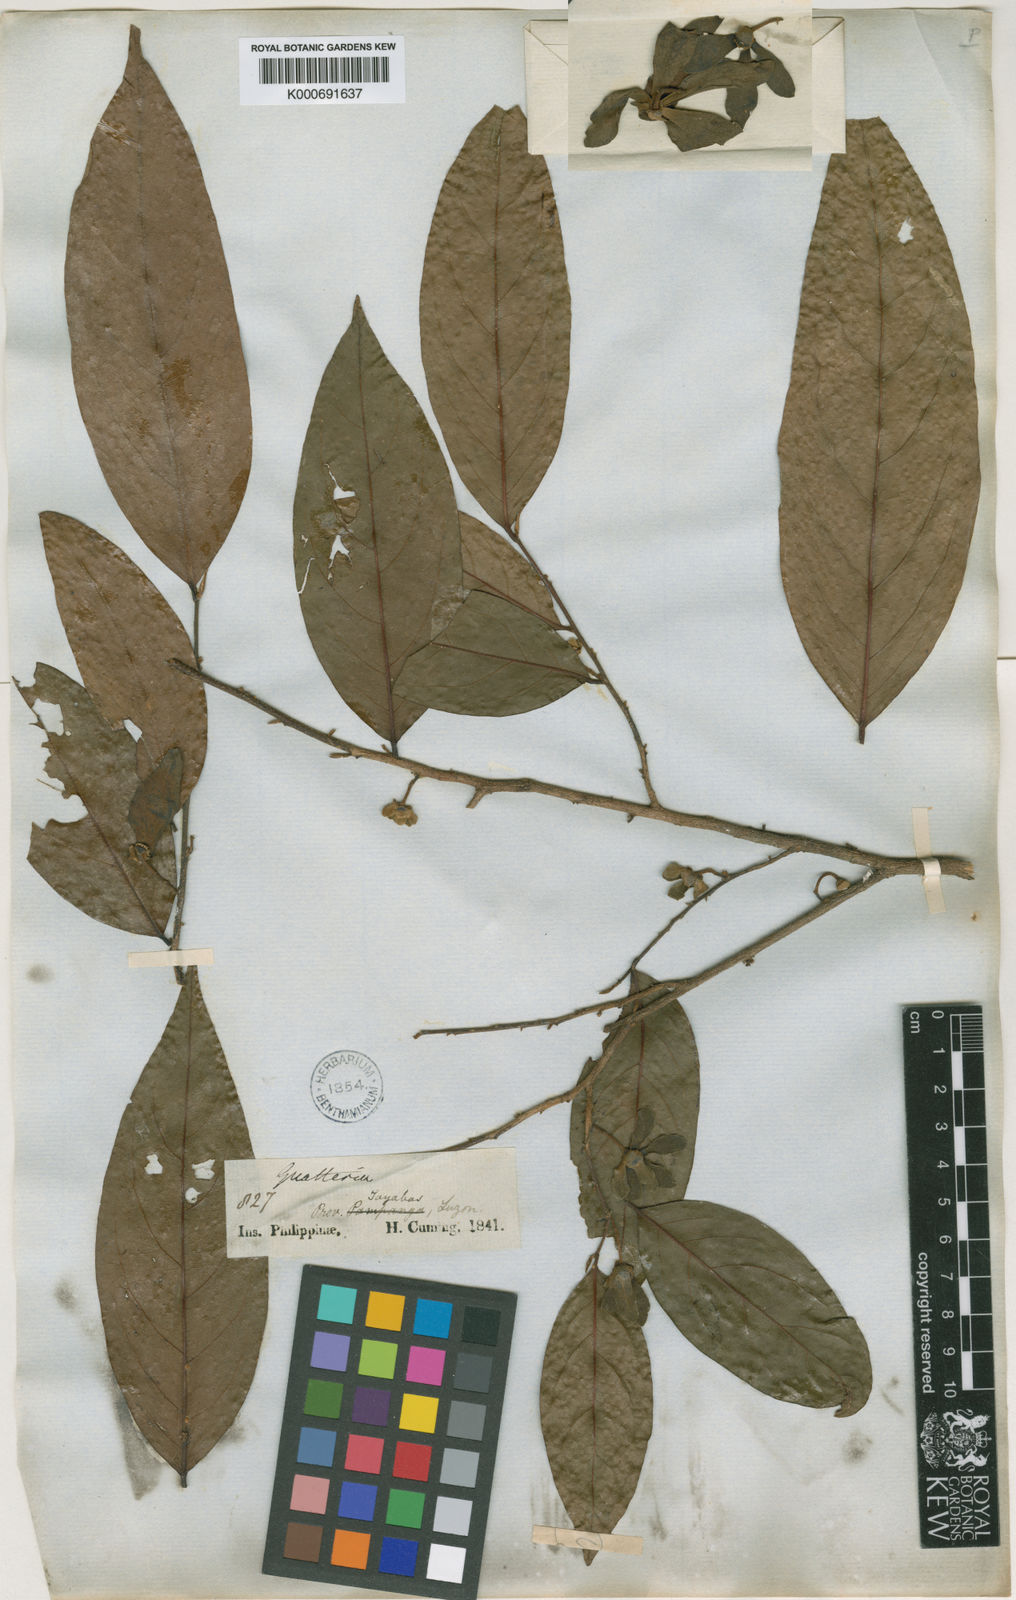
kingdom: Plantae
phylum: Tracheophyta
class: Magnoliopsida
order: Magnoliales
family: Annonaceae
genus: Hubera
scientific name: Hubera jenkinsii
